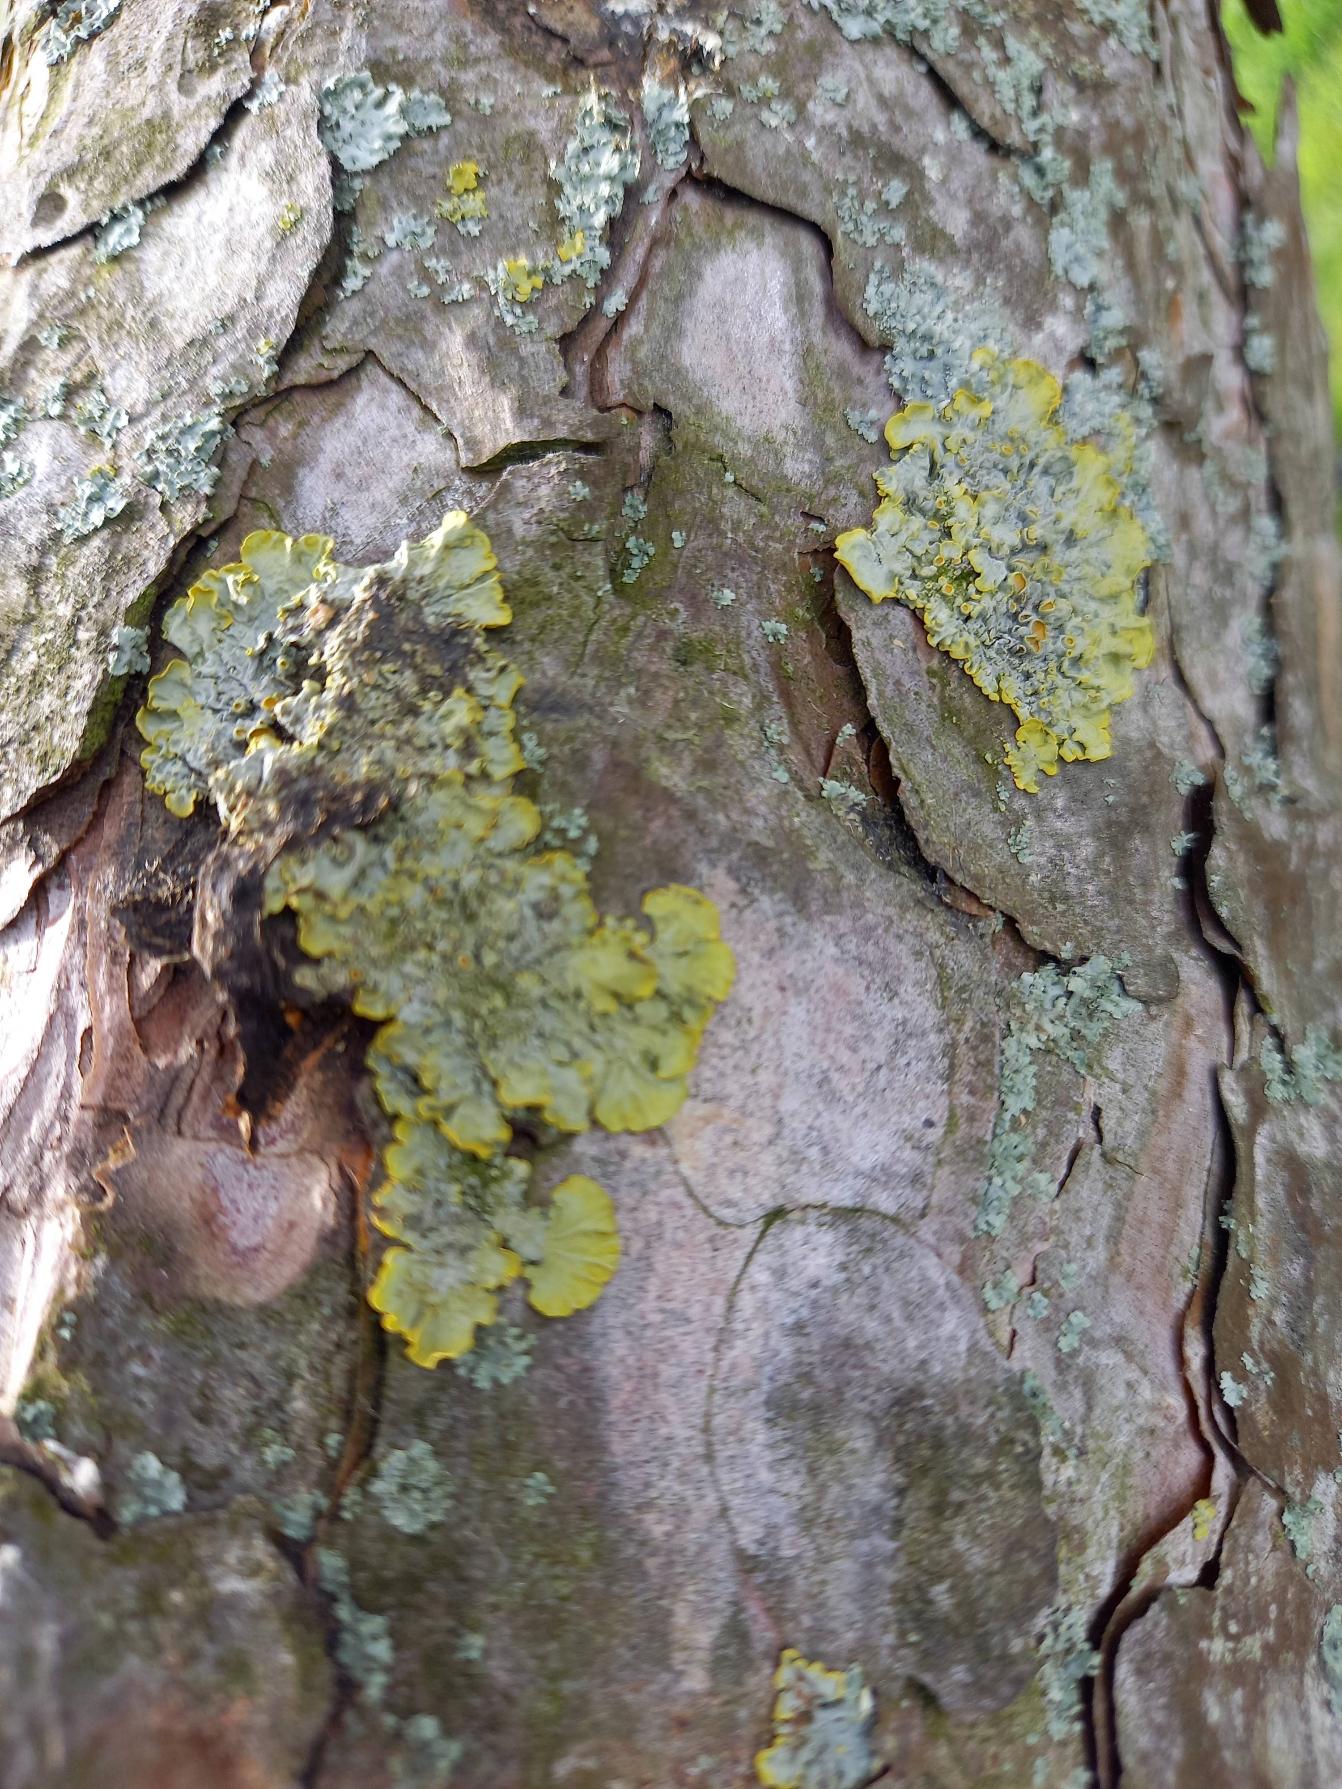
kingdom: Fungi
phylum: Ascomycota
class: Lecanoromycetes
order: Teloschistales
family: Teloschistaceae
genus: Xanthoria
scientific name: Xanthoria parietina
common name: Almindelig væggelav
